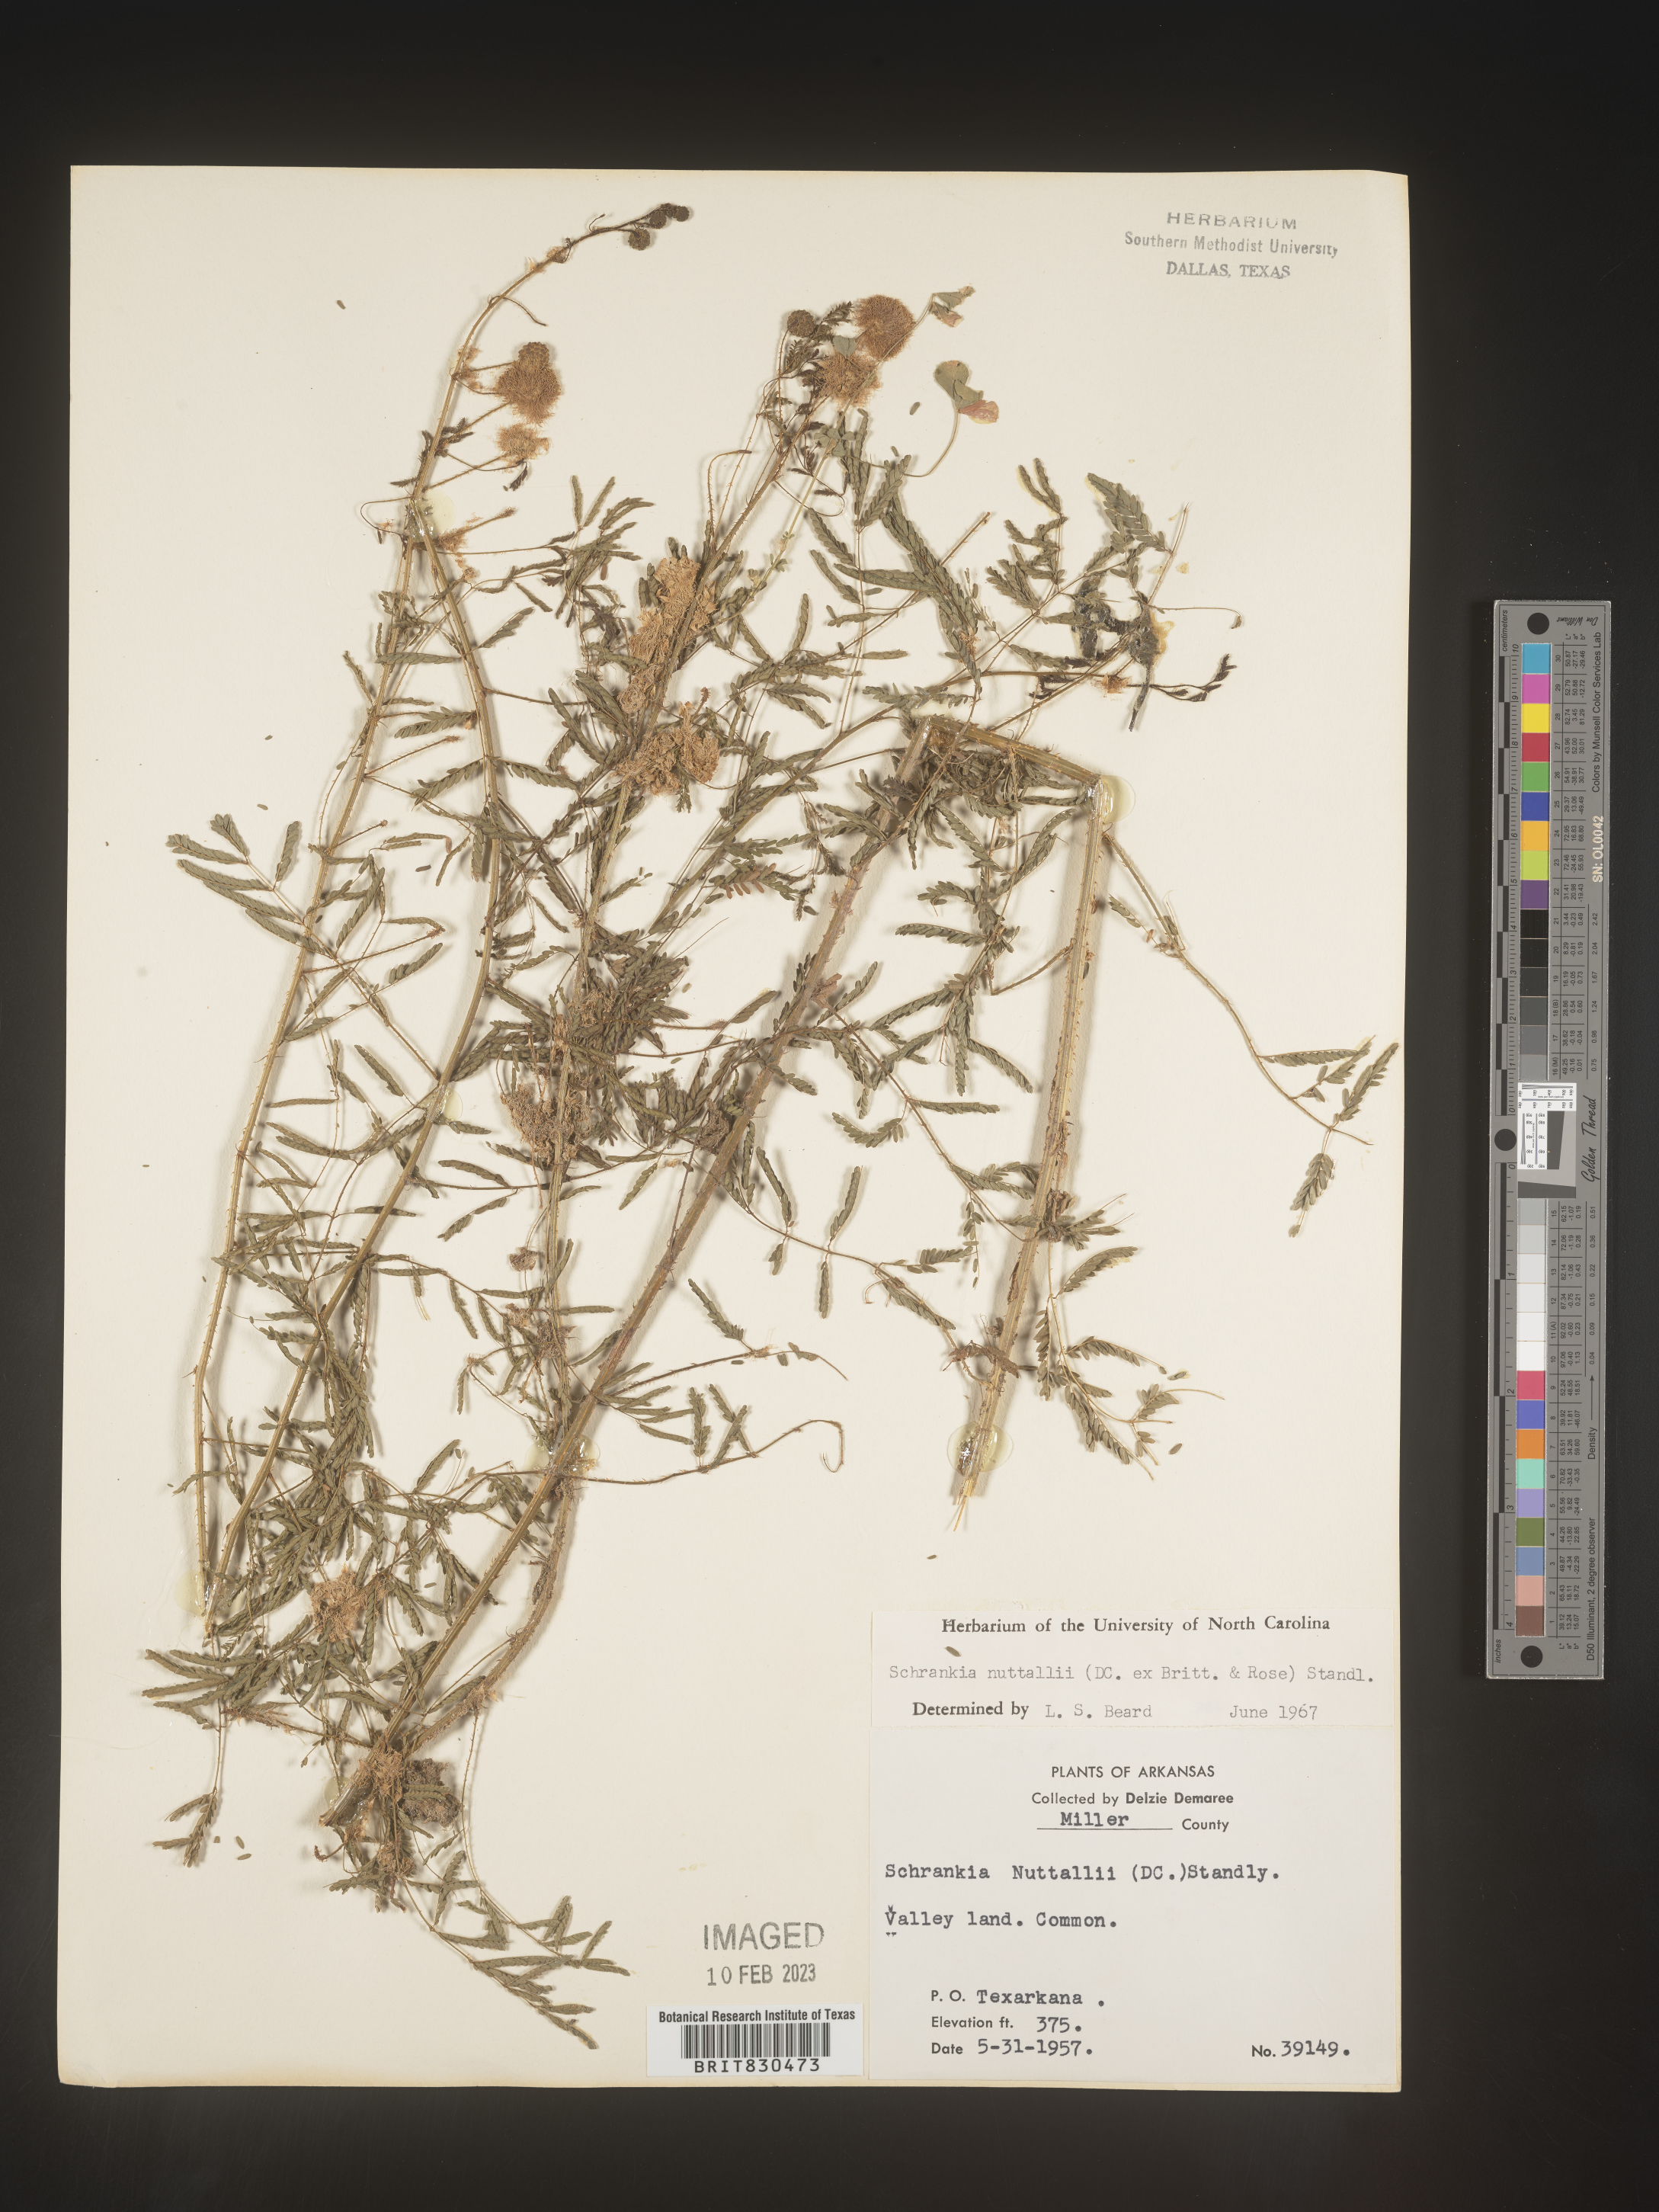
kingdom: Plantae
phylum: Tracheophyta
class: Magnoliopsida
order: Fabales
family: Fabaceae
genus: Mimosa
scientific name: Mimosa quadrivalvis
